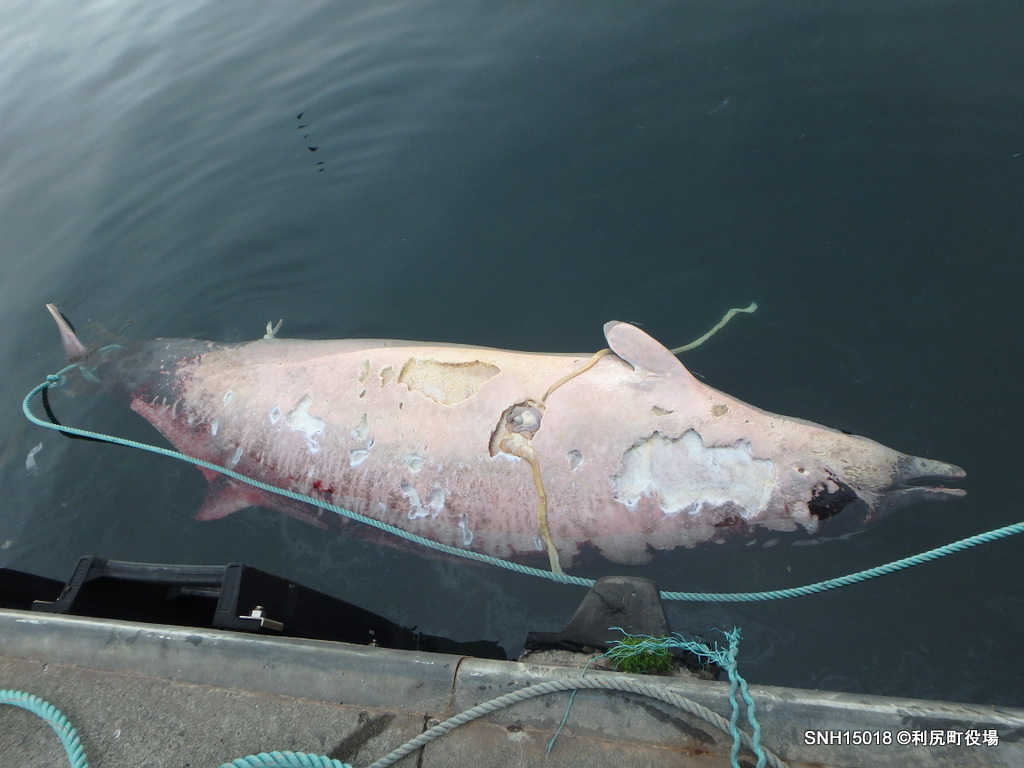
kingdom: Animalia
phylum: Chordata
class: Mammalia
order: Cetacea
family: Hyperoodontidae
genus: Mesoplodon
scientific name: Mesoplodon stejnegeri
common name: Stejneger's beaked whale
